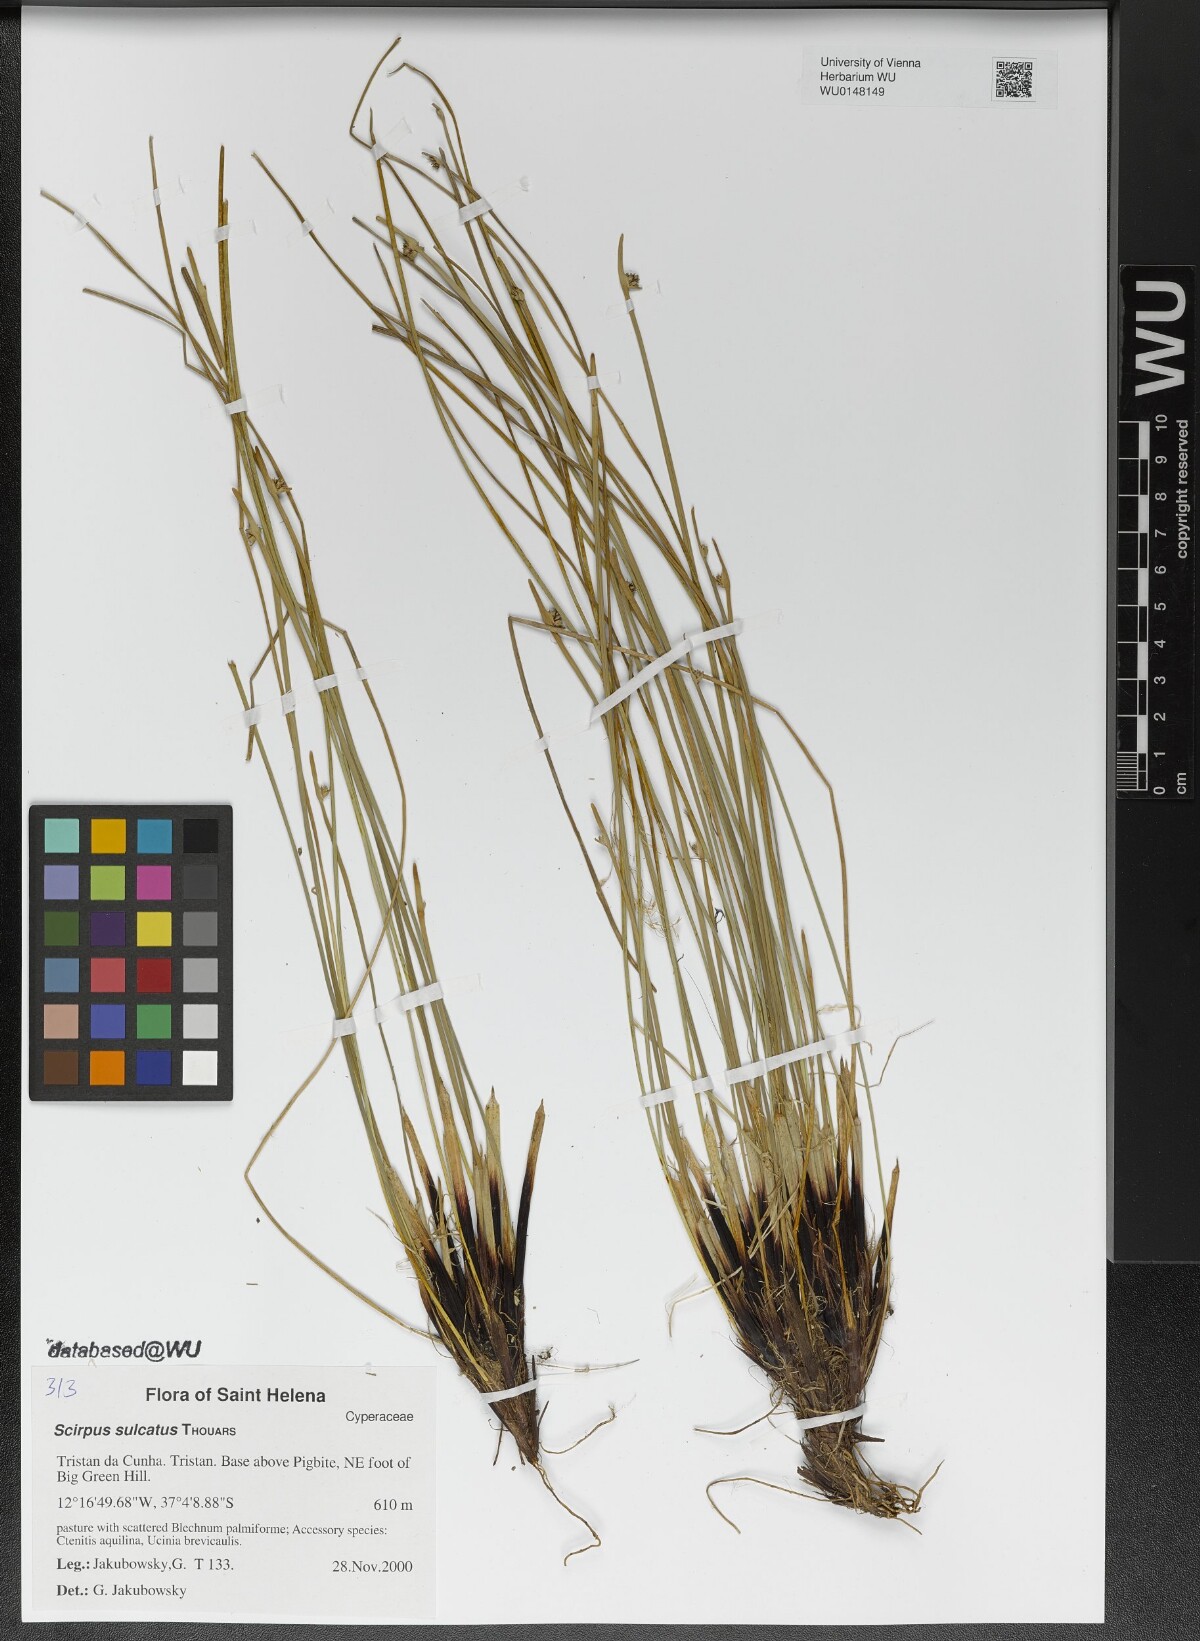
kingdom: Plantae
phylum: Tracheophyta
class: Liliopsida
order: Poales
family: Cyperaceae
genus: Isolepis
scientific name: Isolepis sulcata
